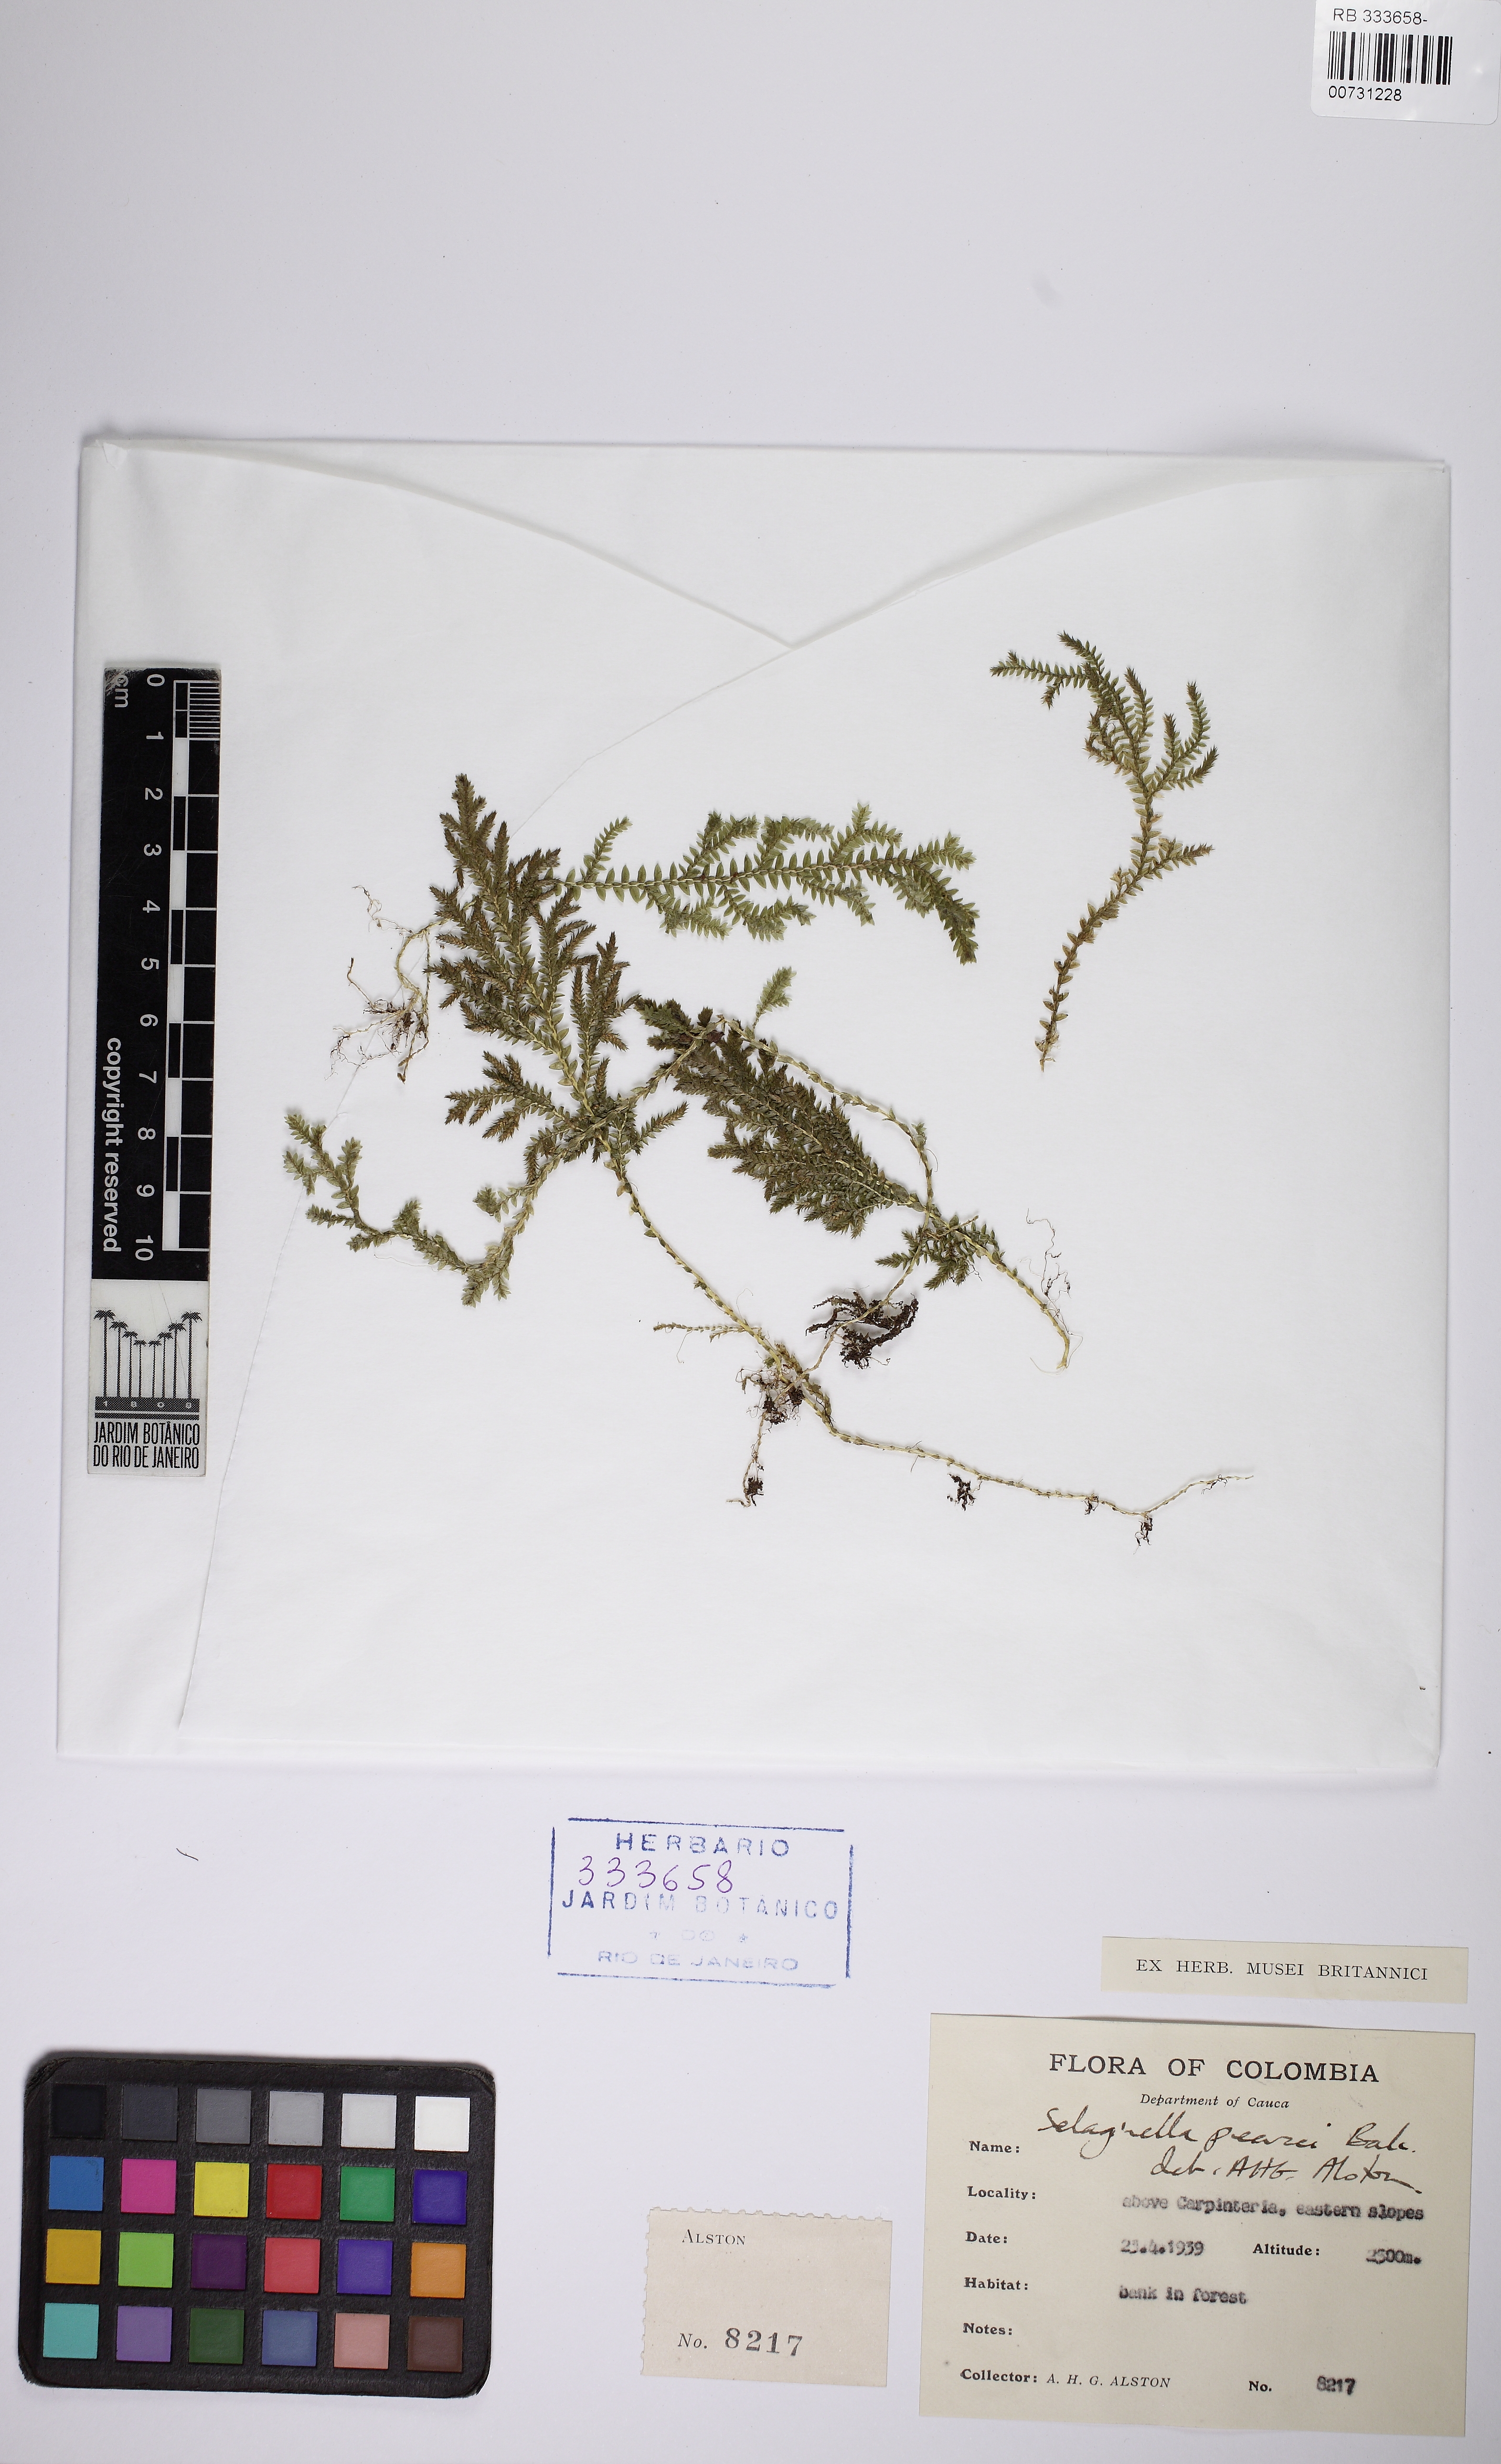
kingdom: Plantae
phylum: Tracheophyta
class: Lycopodiopsida
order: Selaginellales
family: Selaginellaceae
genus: Selaginella
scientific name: Selaginella moritziana
